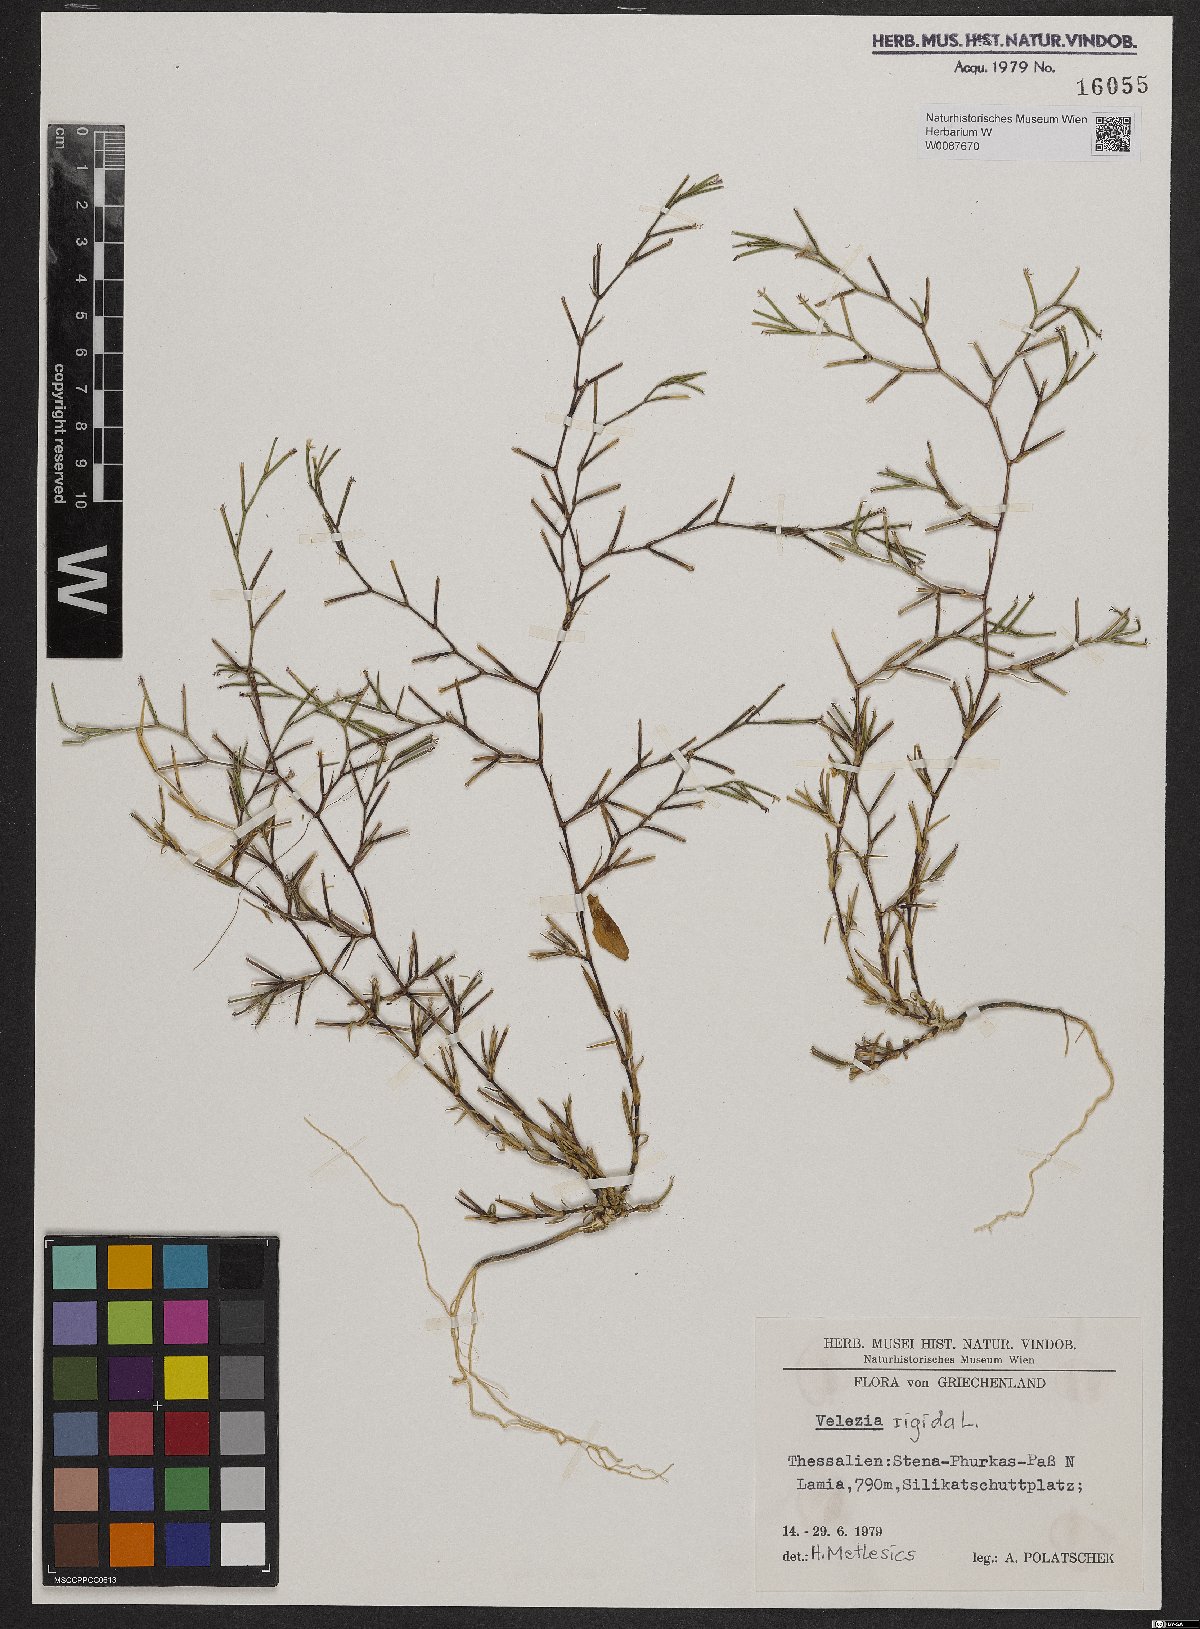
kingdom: Plantae
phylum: Tracheophyta
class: Magnoliopsida
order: Caryophyllales
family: Caryophyllaceae
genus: Dianthus
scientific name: Dianthus nudiflorus
